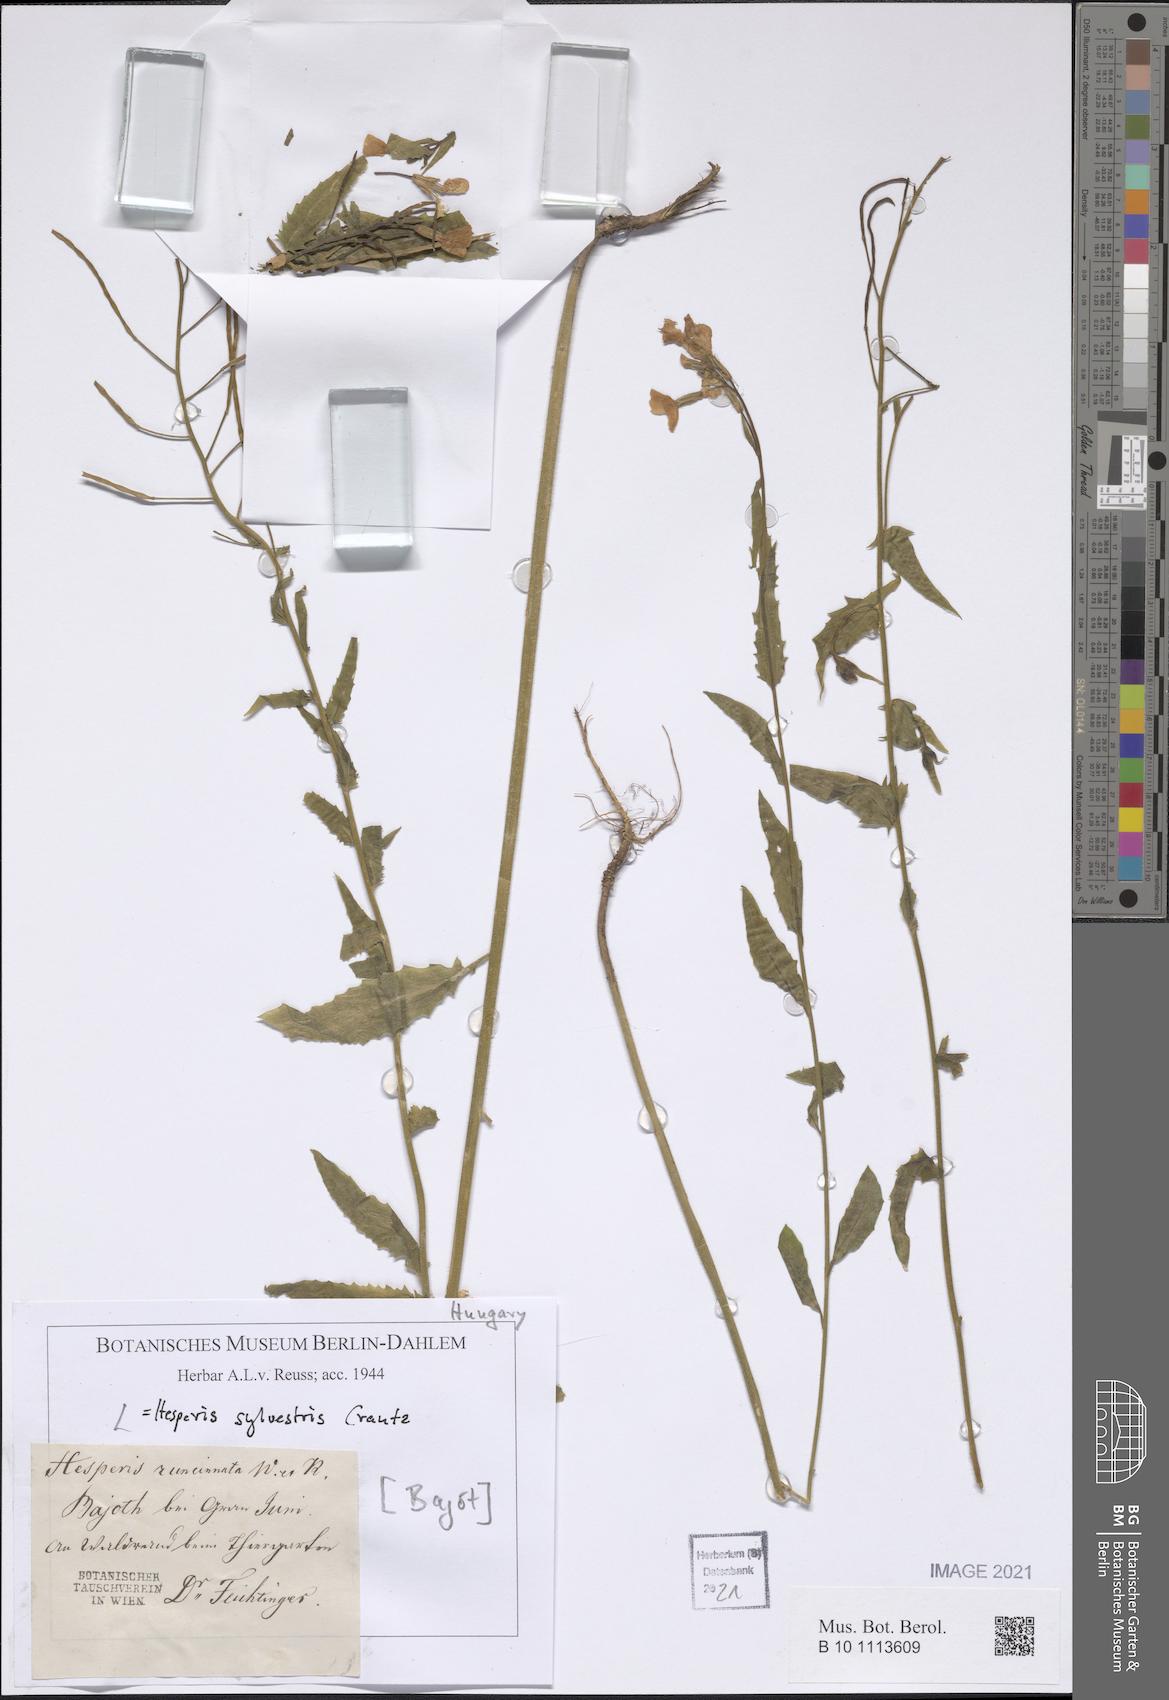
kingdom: Plantae
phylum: Tracheophyta
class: Magnoliopsida
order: Brassicales
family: Brassicaceae
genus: Hesperis
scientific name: Hesperis sylvestris
